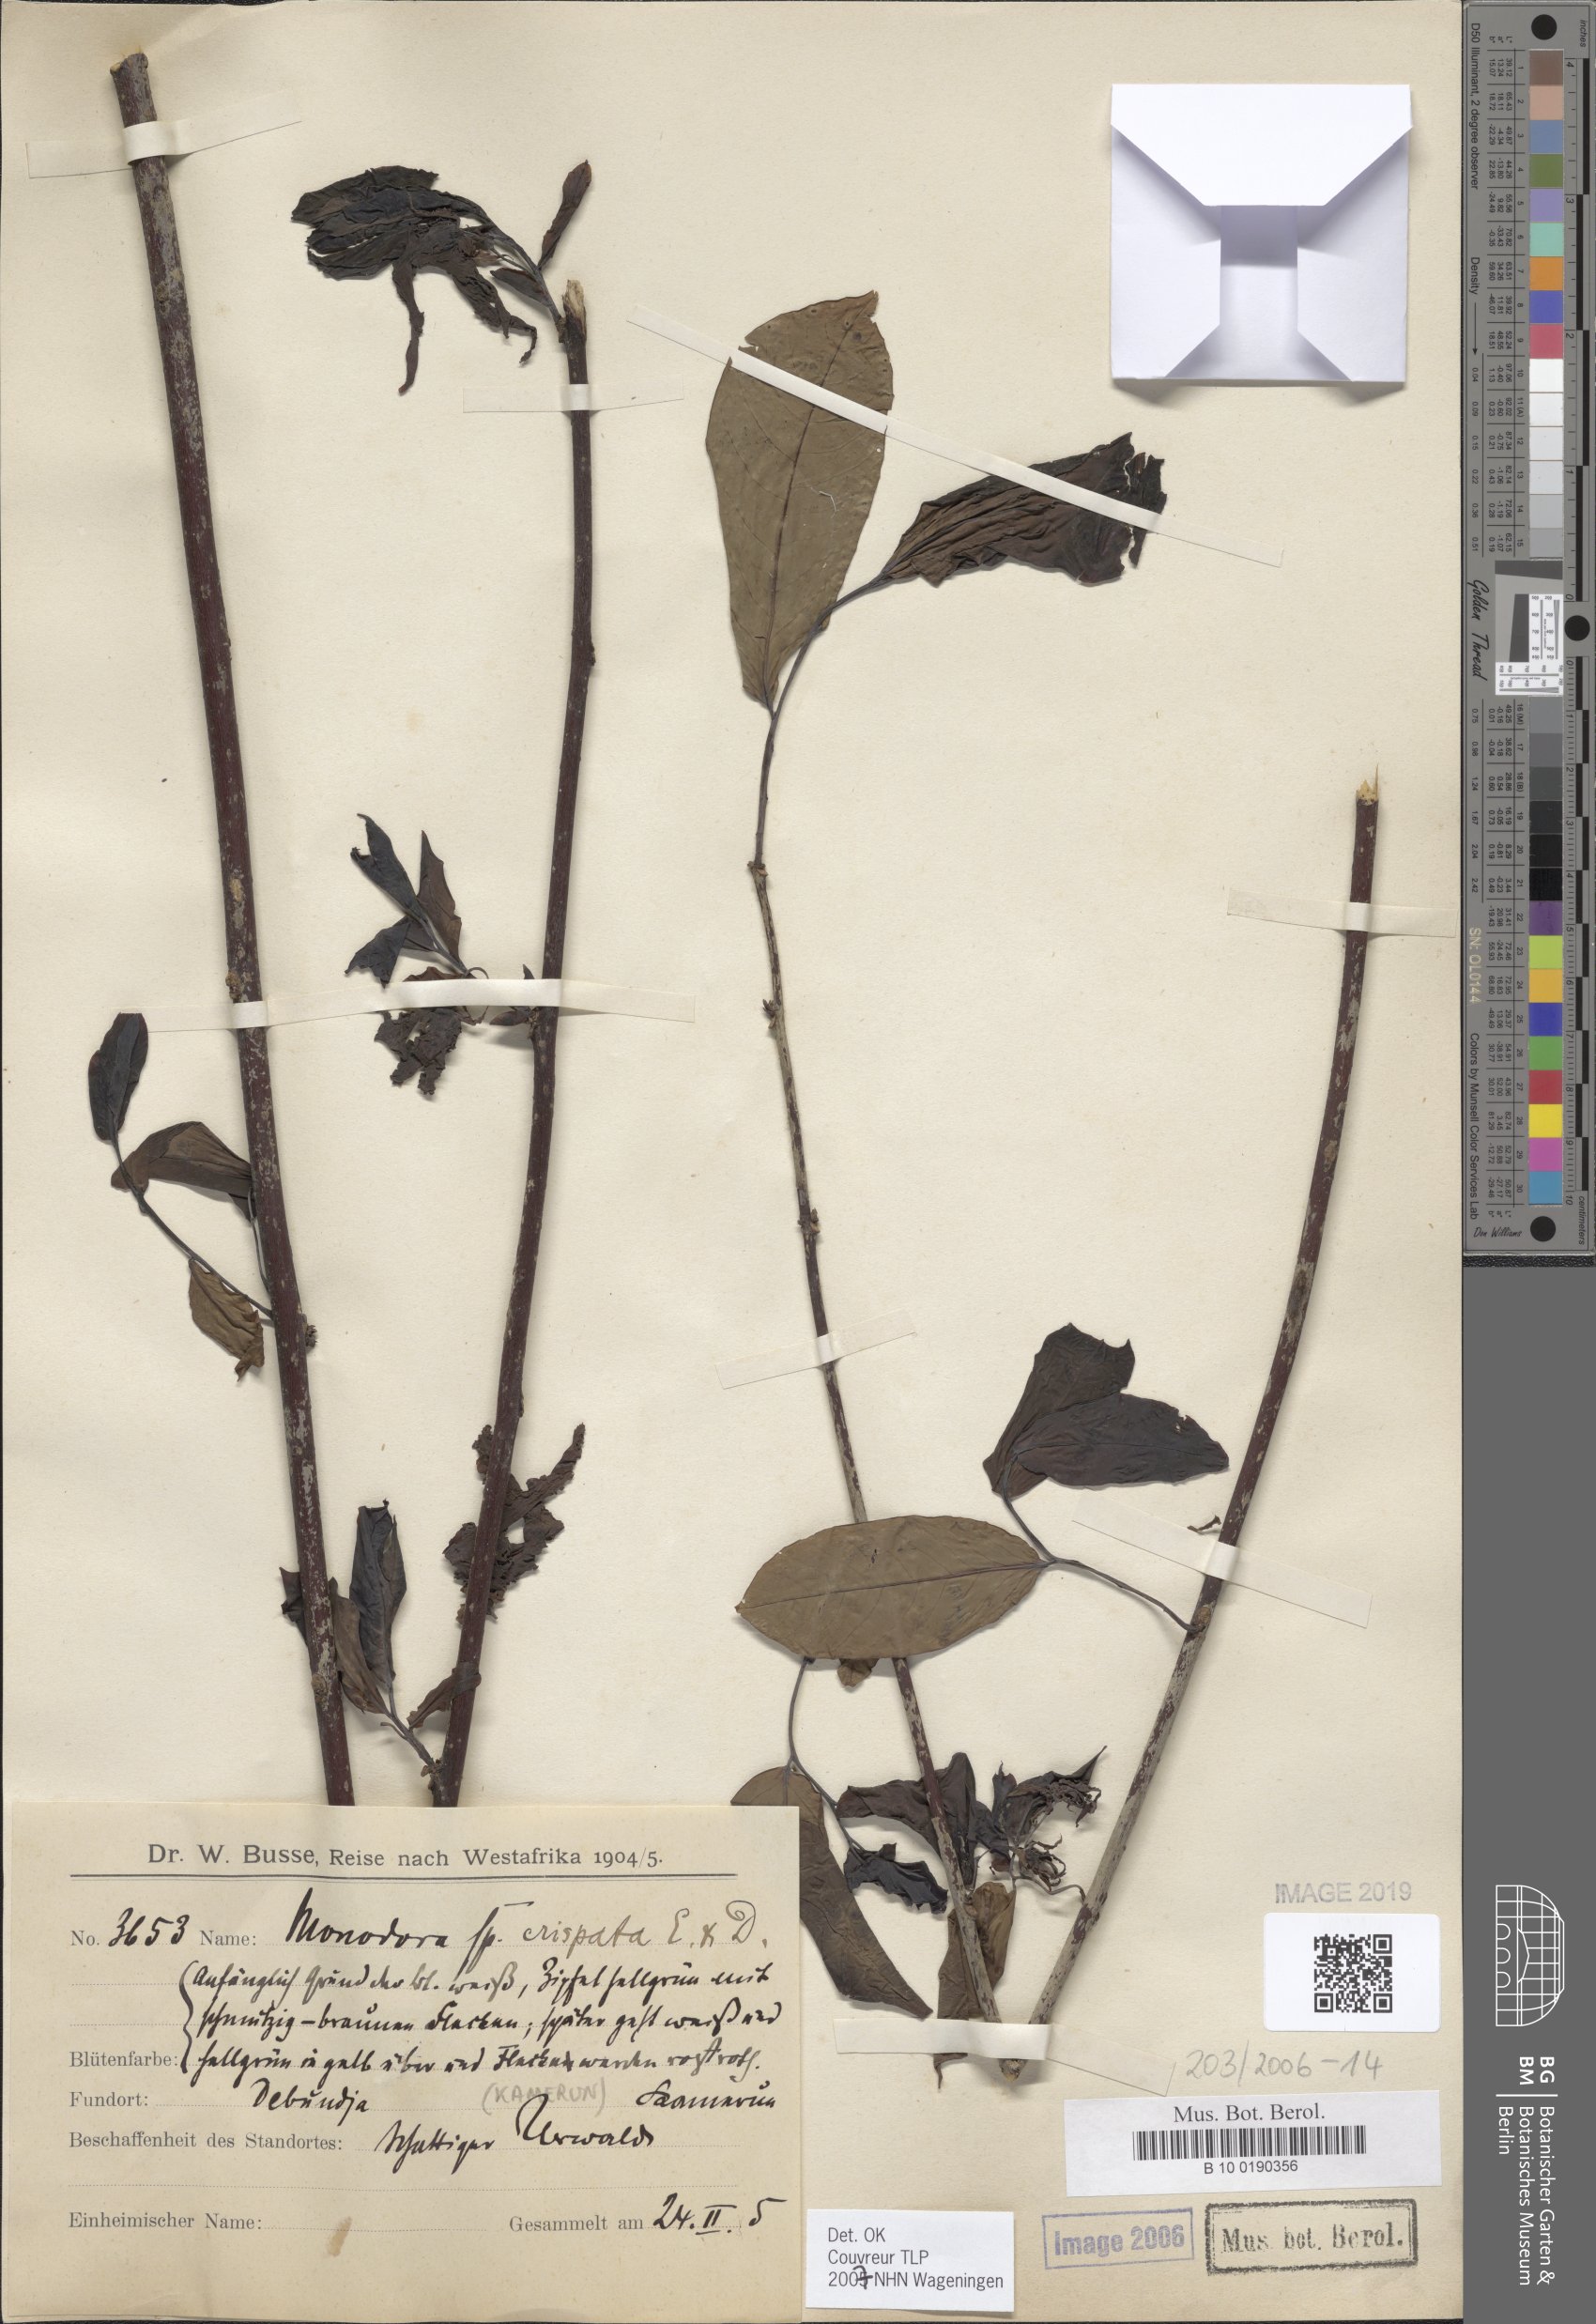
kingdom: Plantae
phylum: Tracheophyta
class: Magnoliopsida
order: Magnoliales
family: Annonaceae
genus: Monodora
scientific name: Monodora crispata
